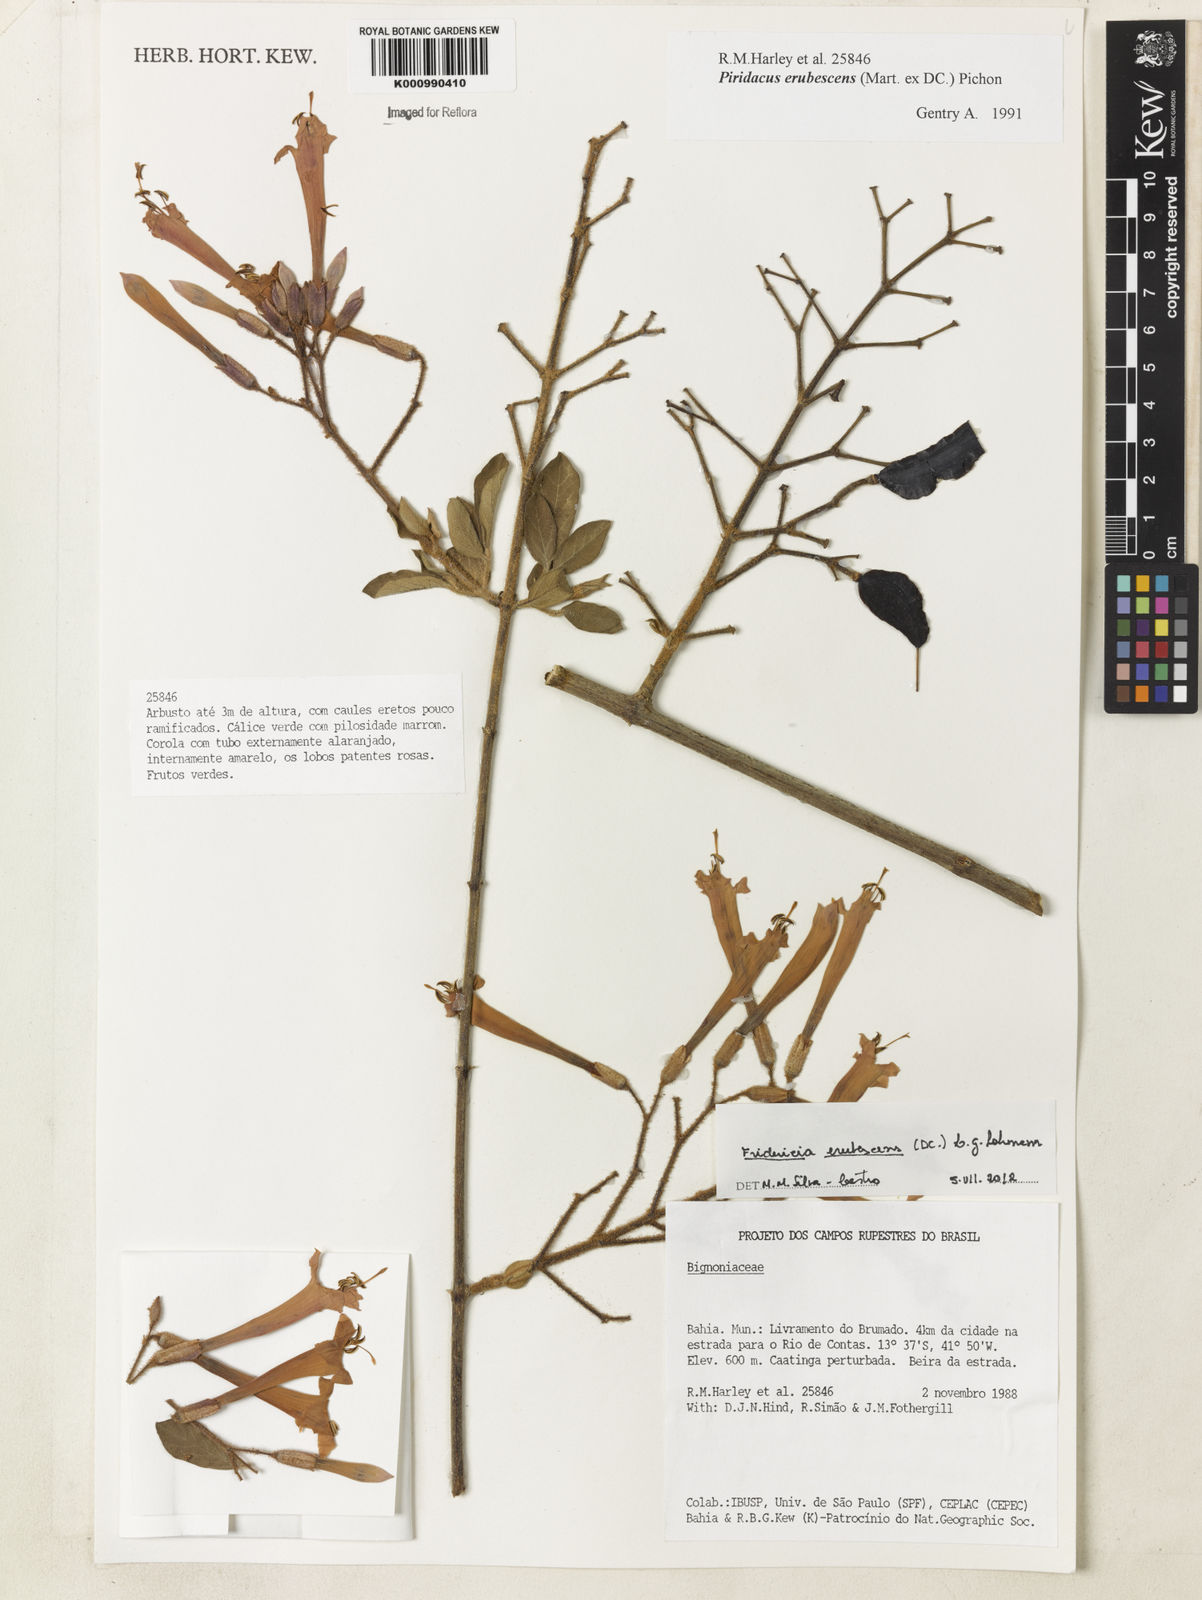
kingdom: Plantae
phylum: Tracheophyta
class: Magnoliopsida
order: Lamiales
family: Bignoniaceae
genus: Fridericia
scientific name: Fridericia erubescens
